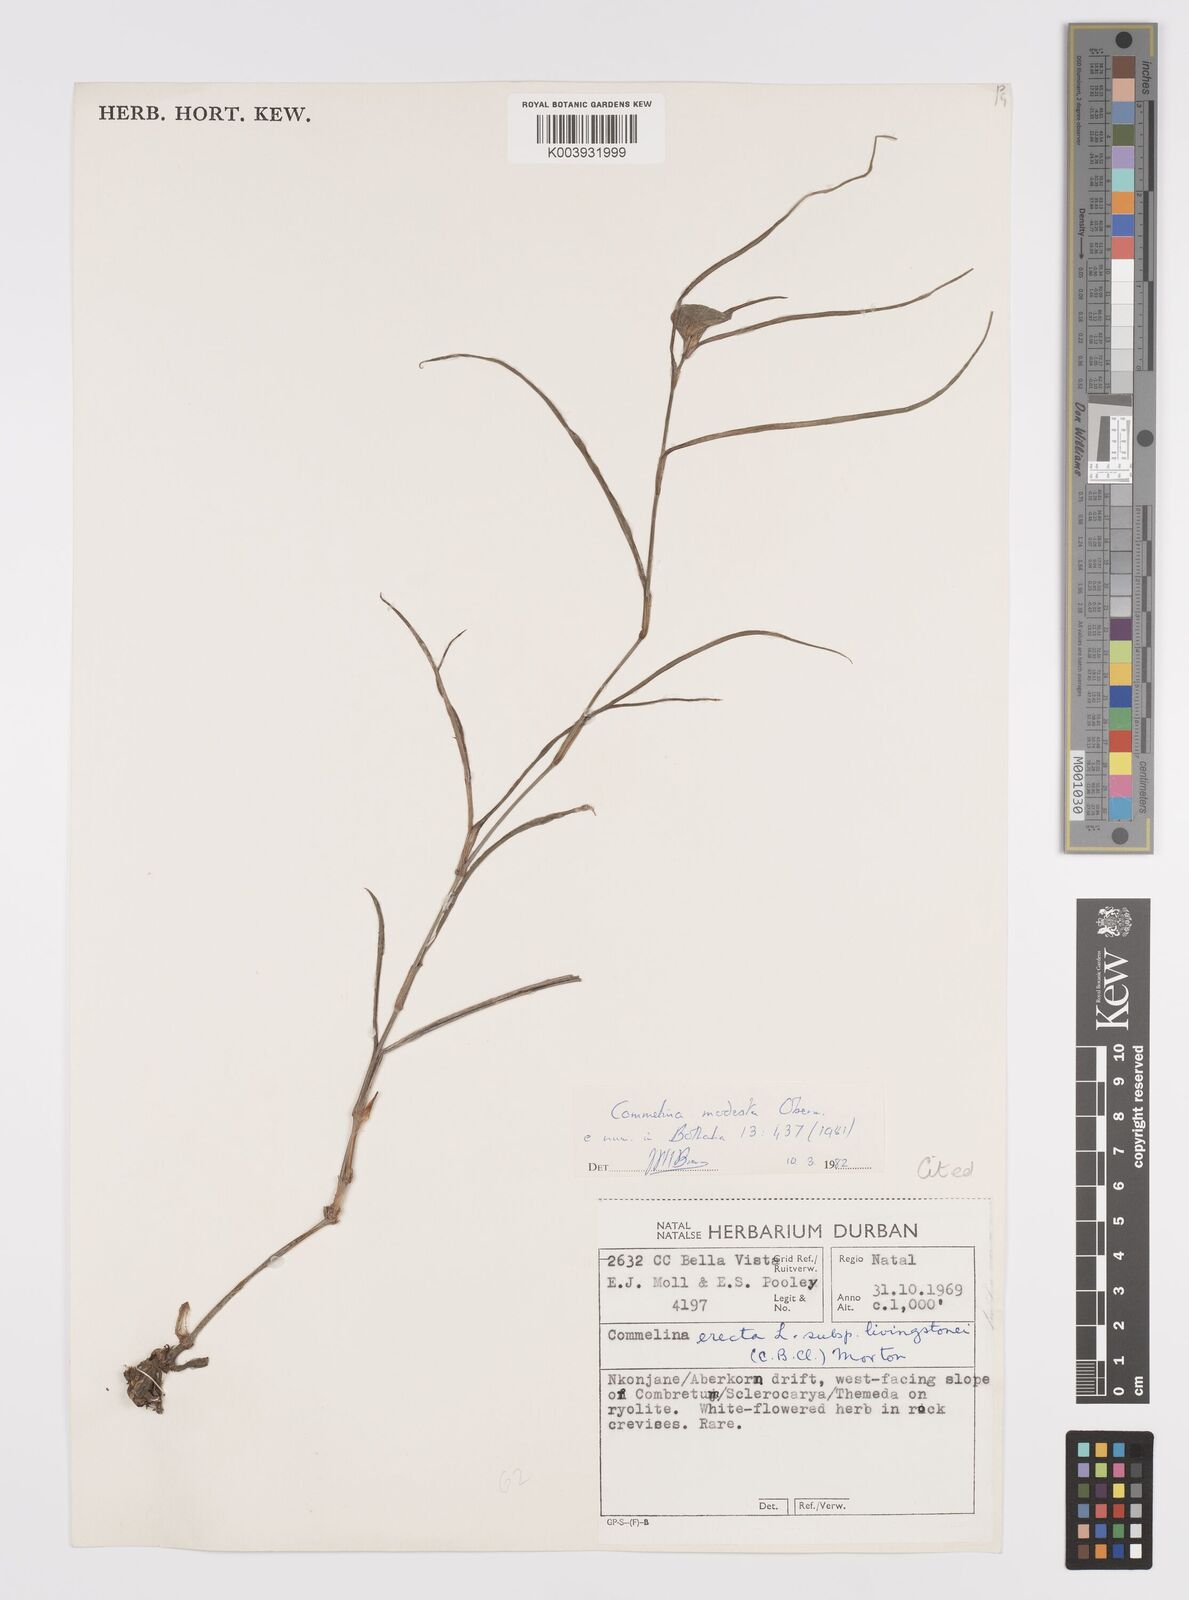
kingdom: Plantae
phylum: Tracheophyta
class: Liliopsida
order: Commelinales
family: Commelinaceae
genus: Commelina
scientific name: Commelina modesta
